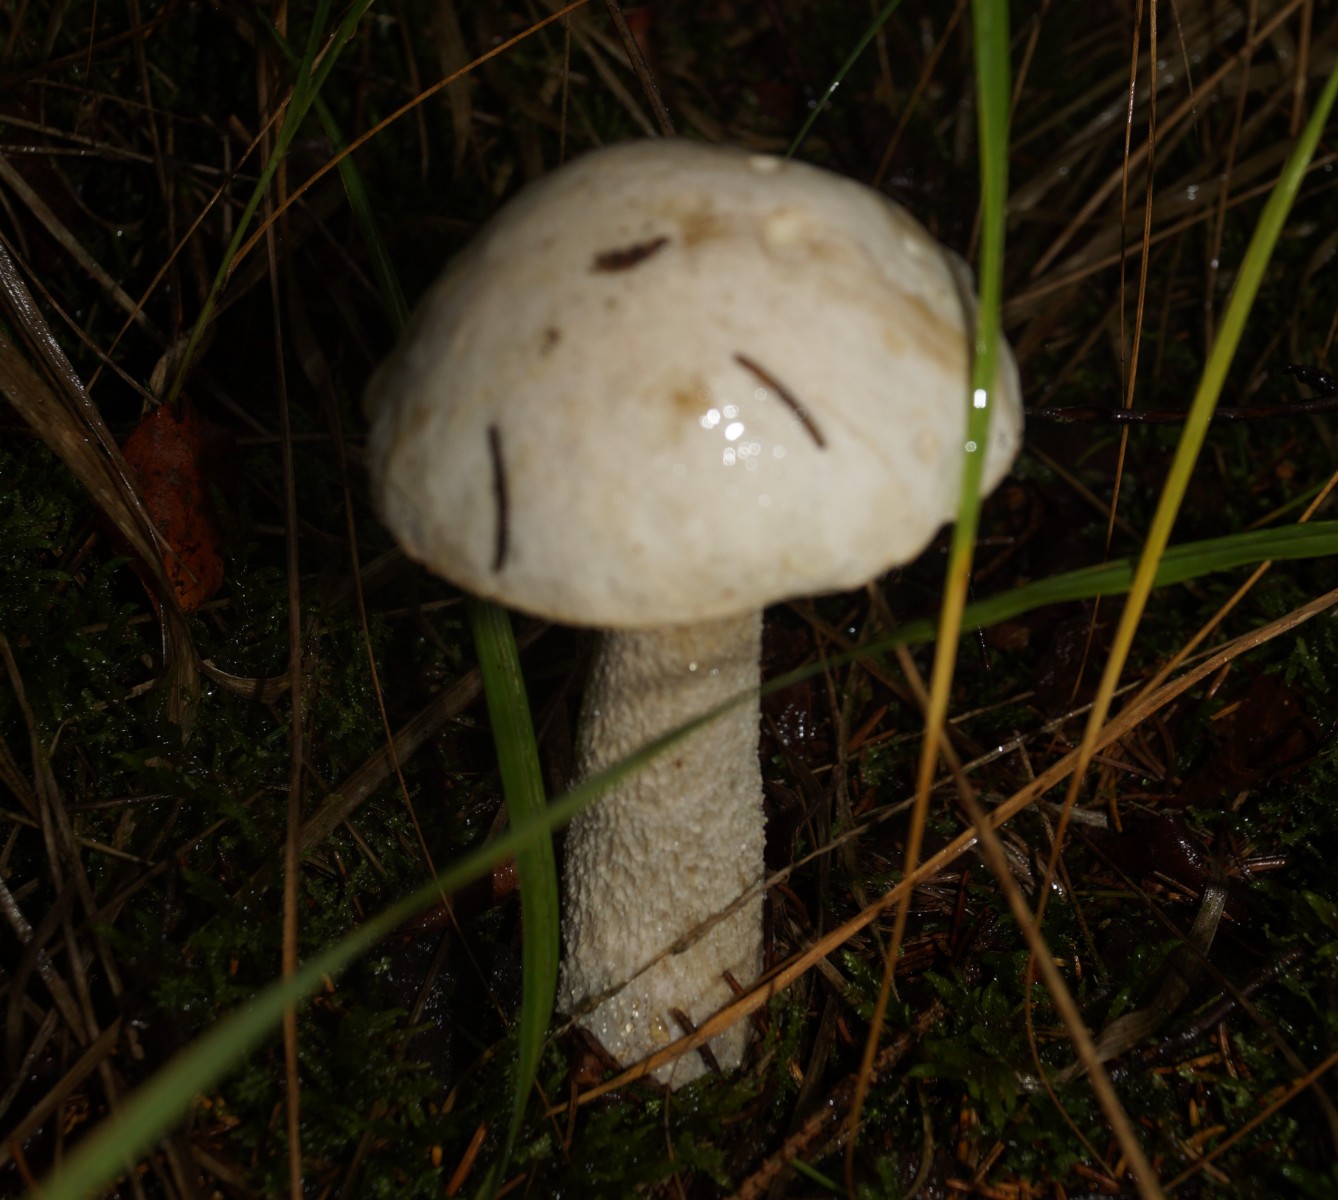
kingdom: Fungi
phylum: Basidiomycota
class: Agaricomycetes
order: Boletales
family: Boletaceae
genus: Leccinum
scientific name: Leccinum scabrum
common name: hvid skælrørhat
